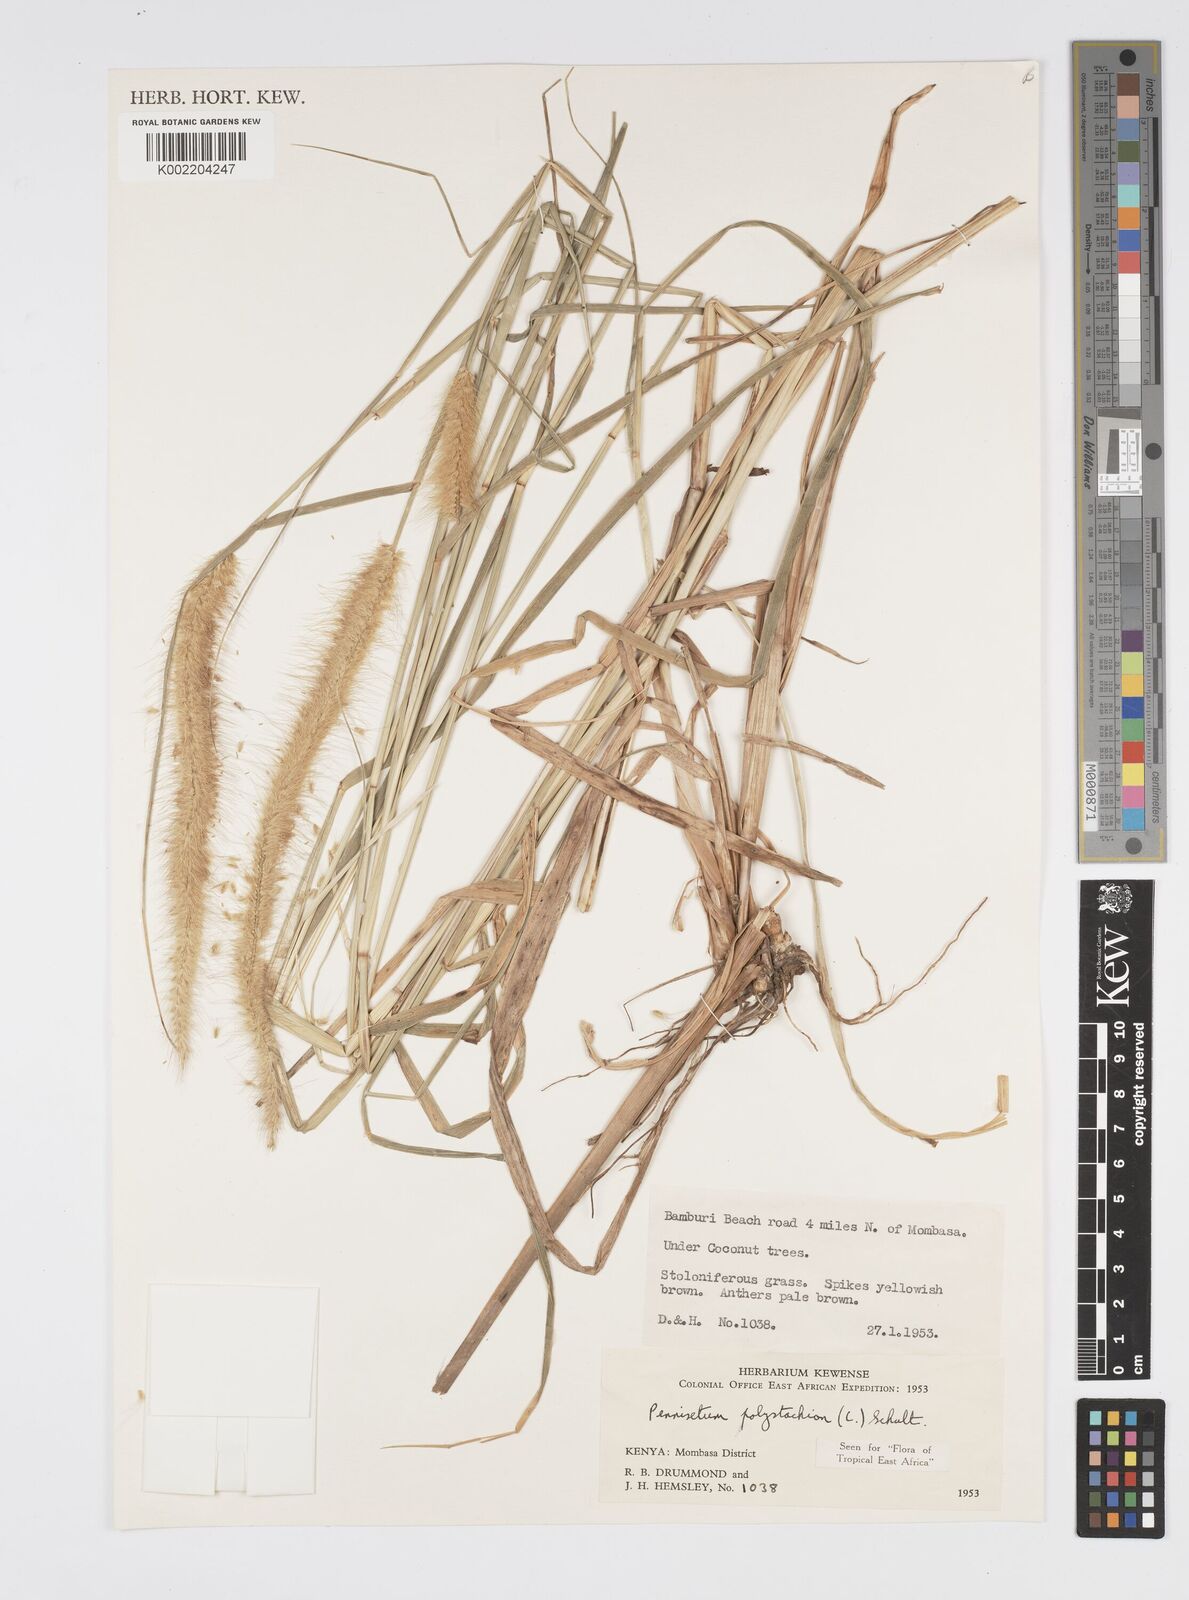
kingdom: Plantae
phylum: Tracheophyta
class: Liliopsida
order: Poales
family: Poaceae
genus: Setaria
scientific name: Setaria parviflora
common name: Knotroot bristle-grass
